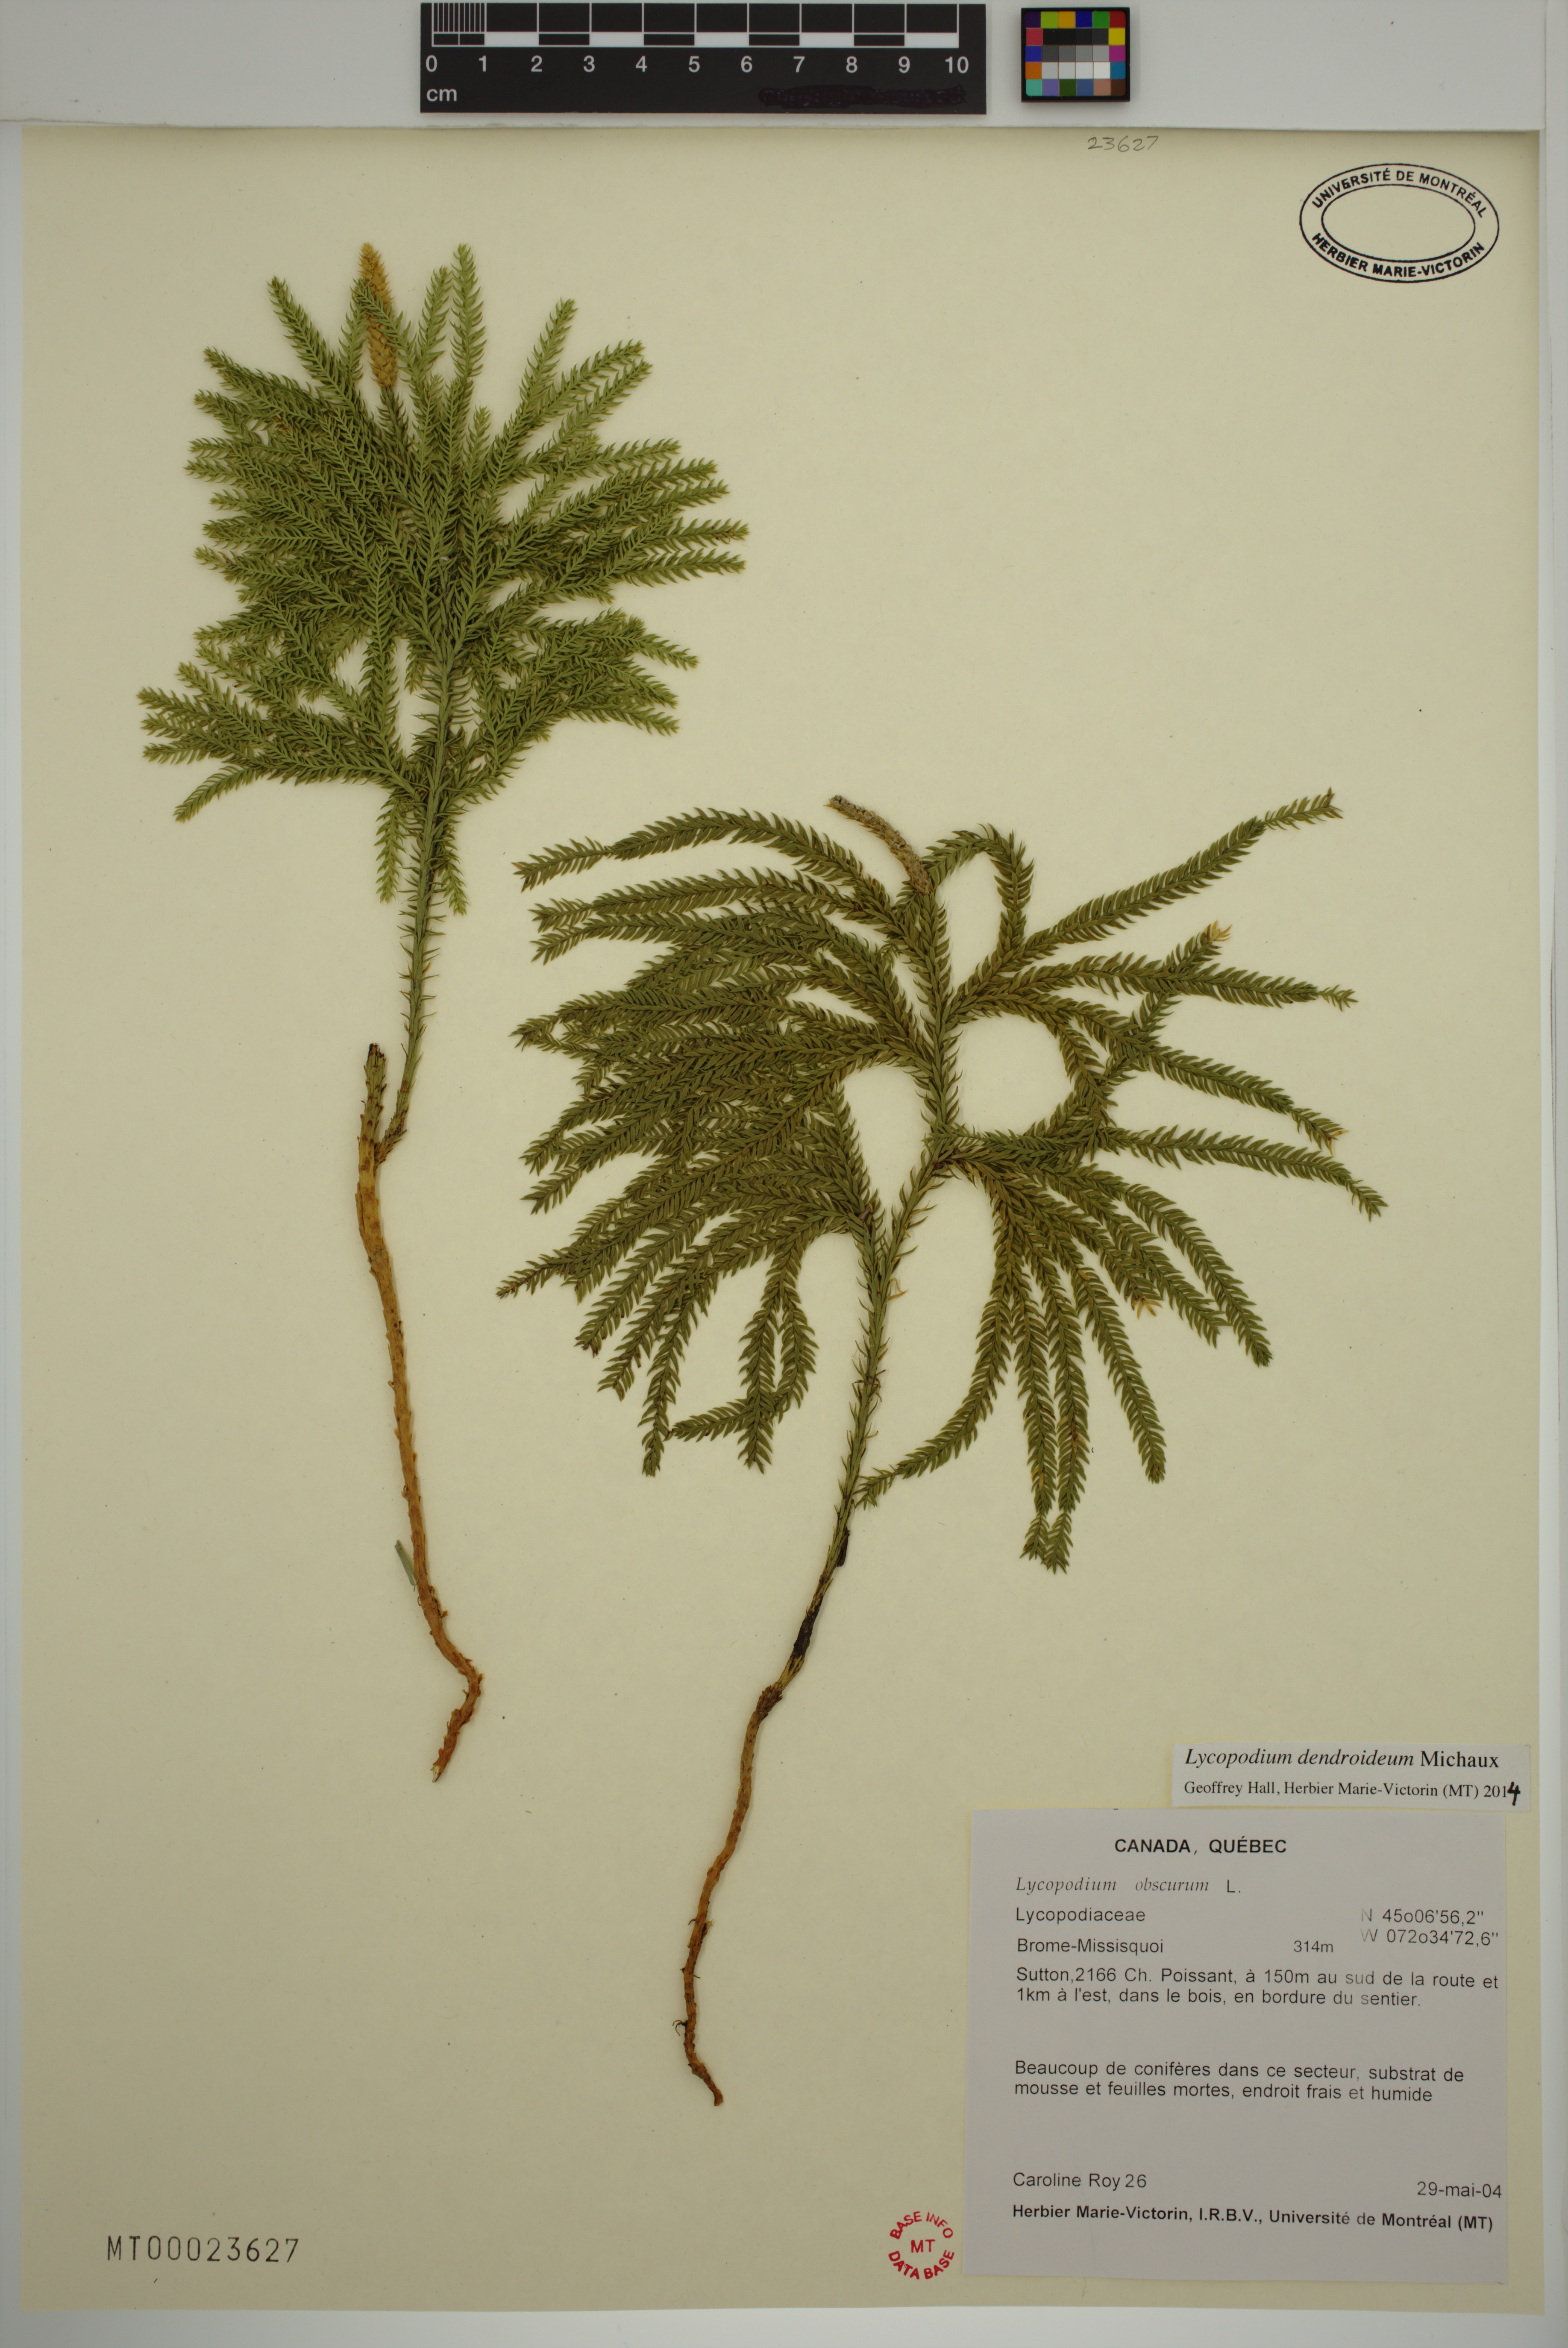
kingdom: Plantae
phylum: Tracheophyta
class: Lycopodiopsida
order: Lycopodiales
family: Lycopodiaceae
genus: Dendrolycopodium
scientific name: Dendrolycopodium dendroideum
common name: Northern tree-clubmoss
